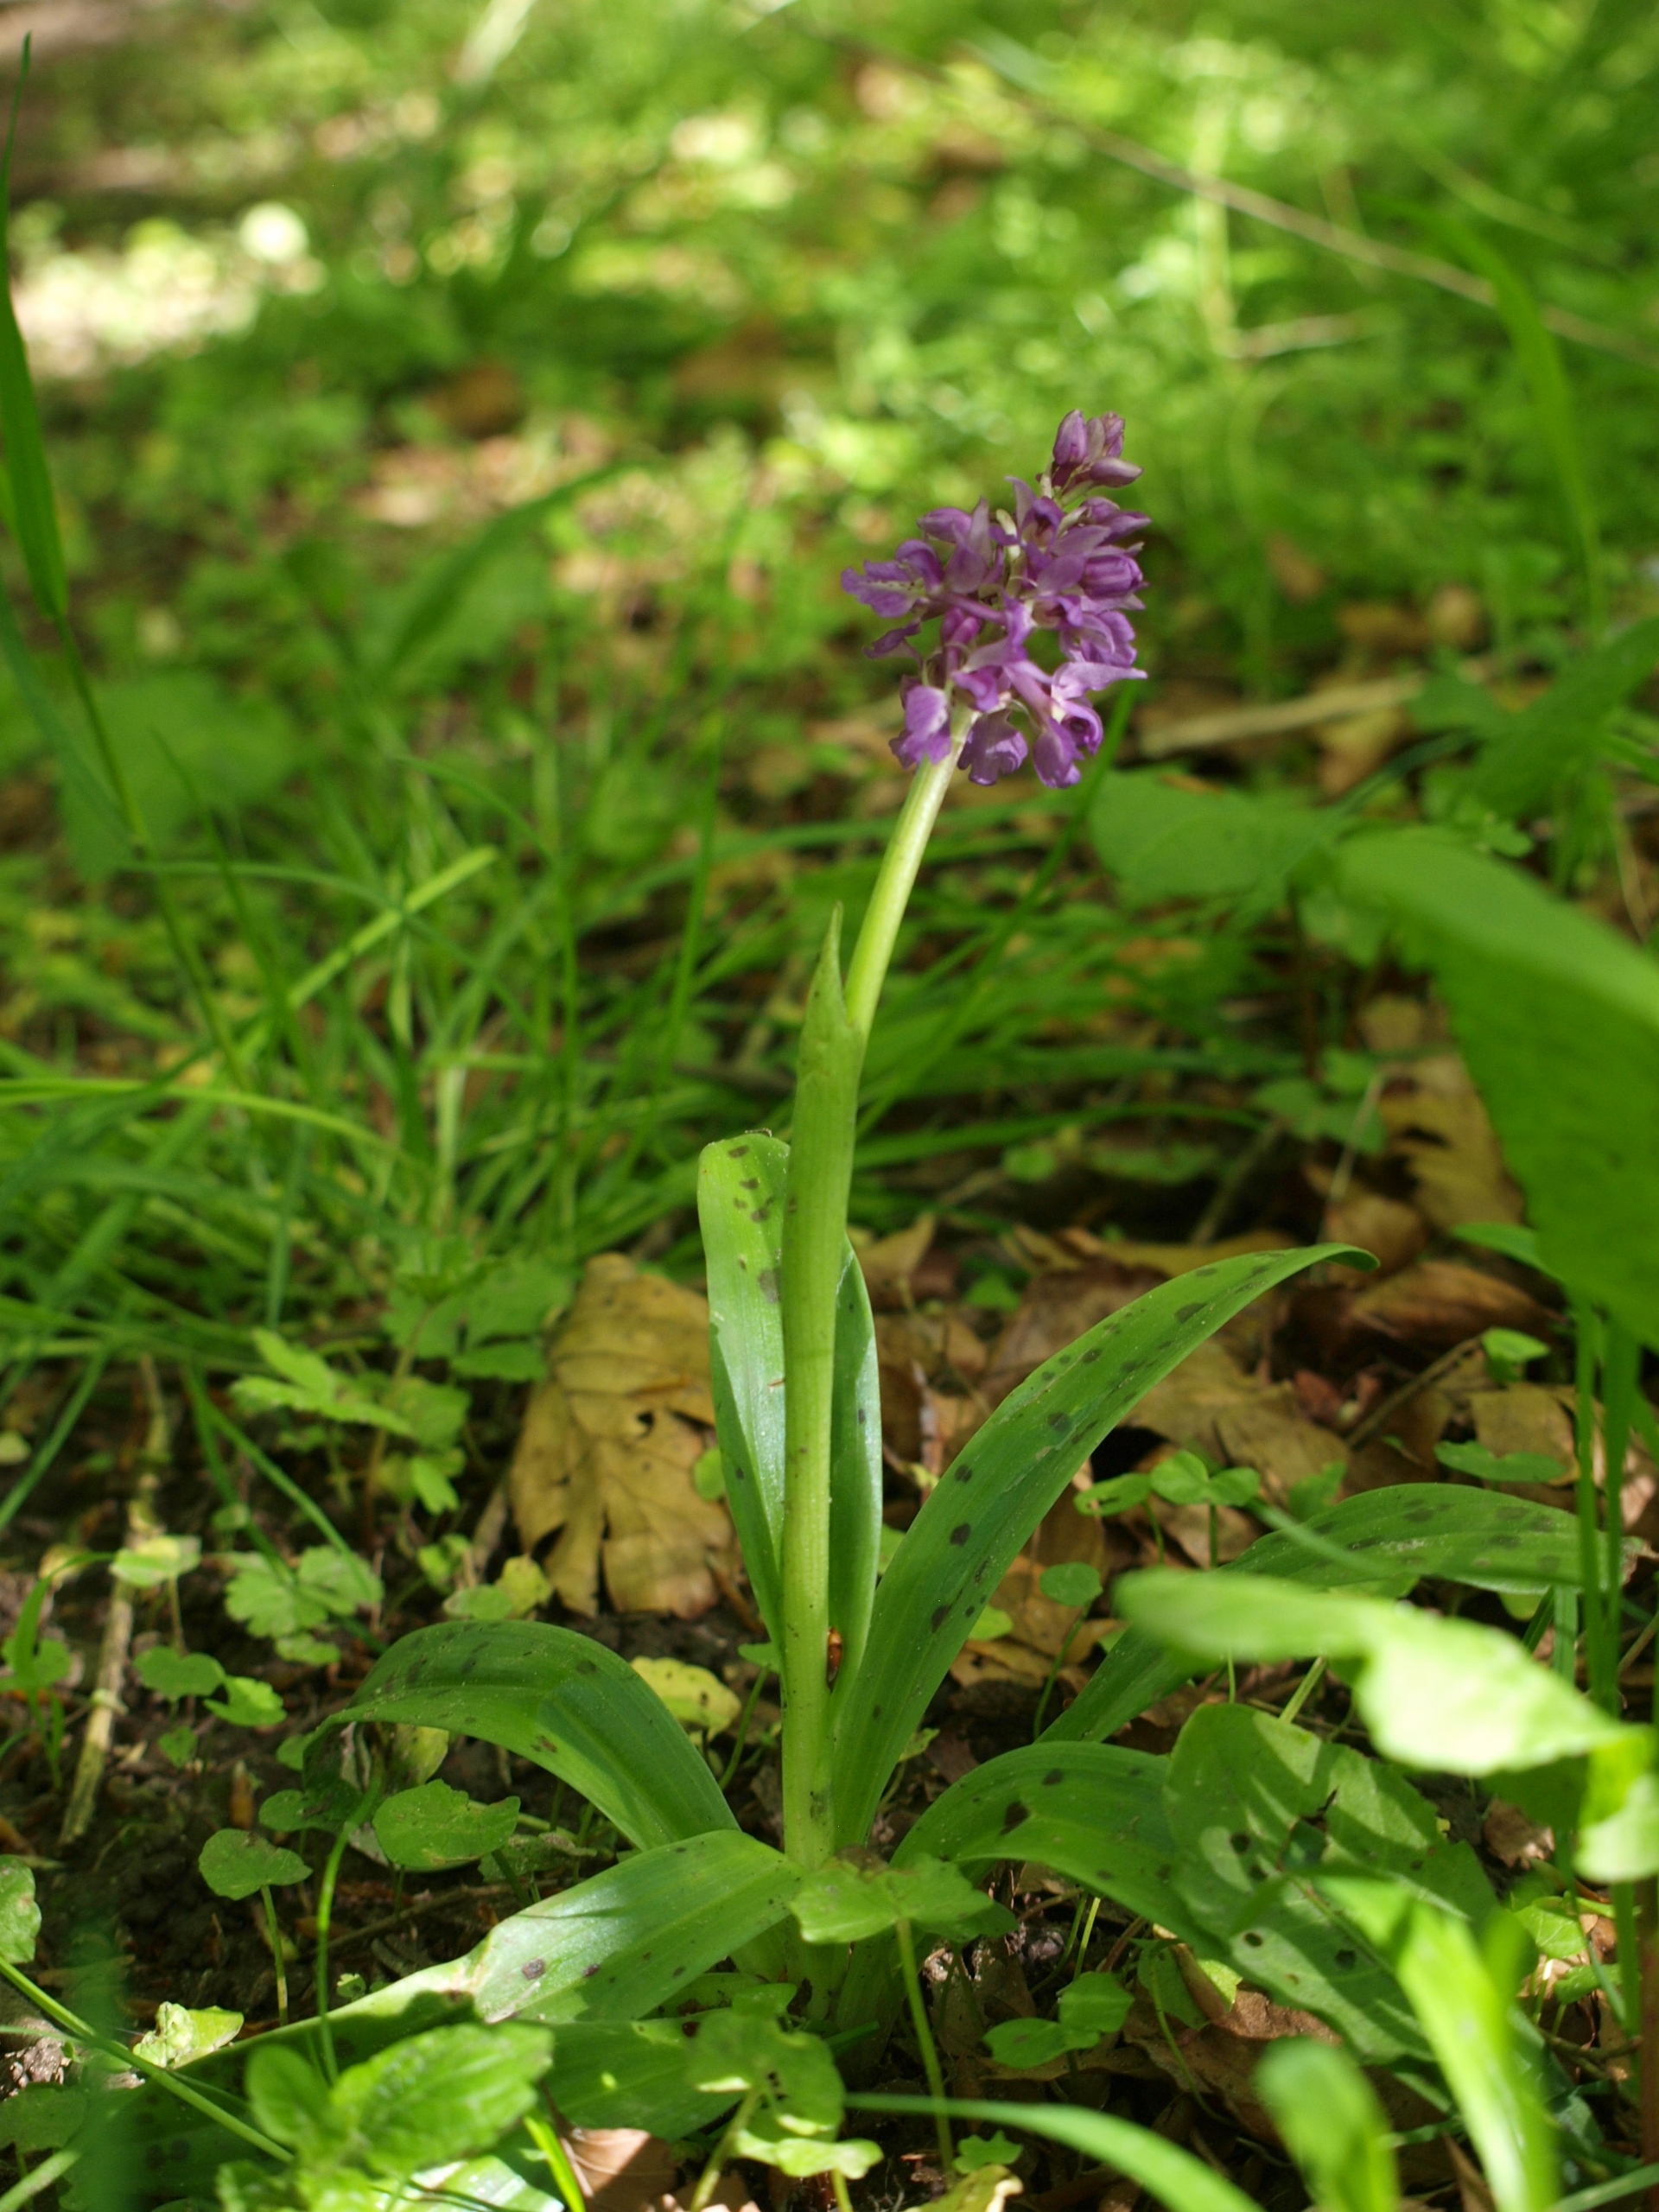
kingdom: Plantae
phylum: Tracheophyta
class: Liliopsida
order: Asparagales
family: Orchidaceae
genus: Orchis
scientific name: Orchis mascula
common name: Tyndakset gøgeurt
